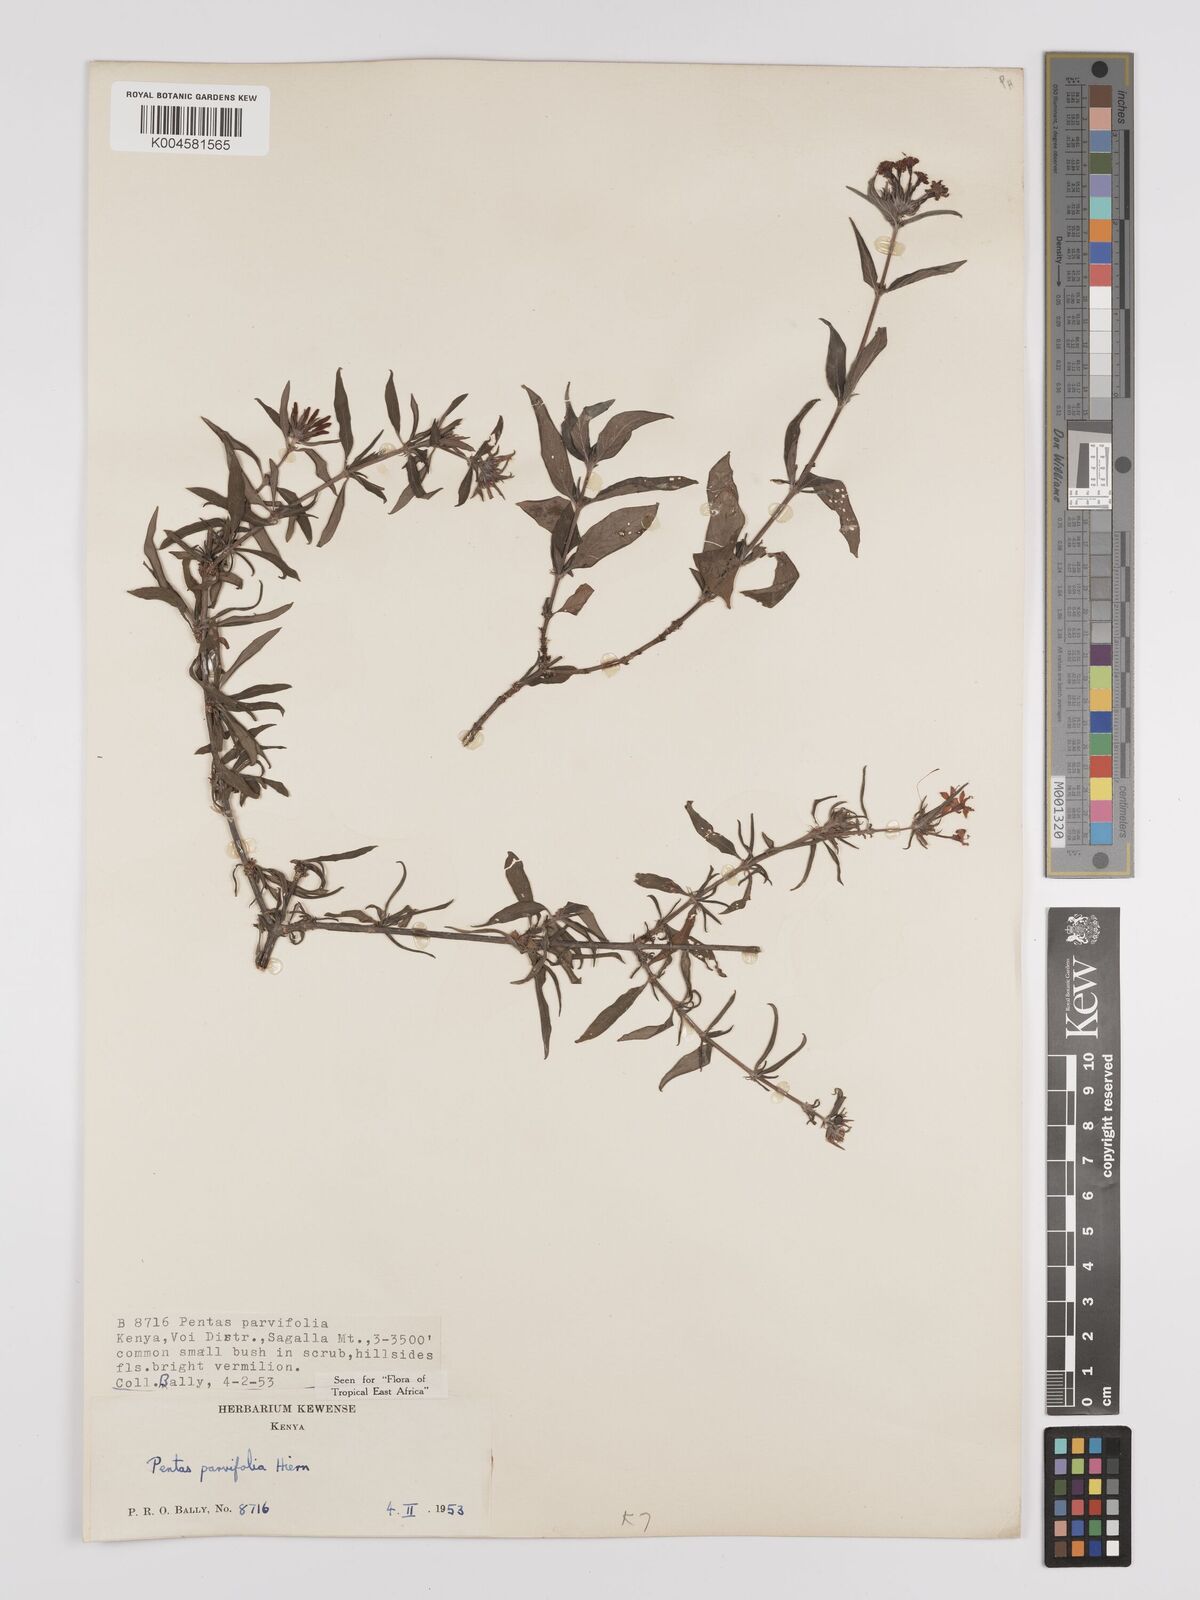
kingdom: Plantae
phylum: Tracheophyta
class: Magnoliopsida
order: Gentianales
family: Rubiaceae
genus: Rhodopentas
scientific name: Rhodopentas parvifolia
